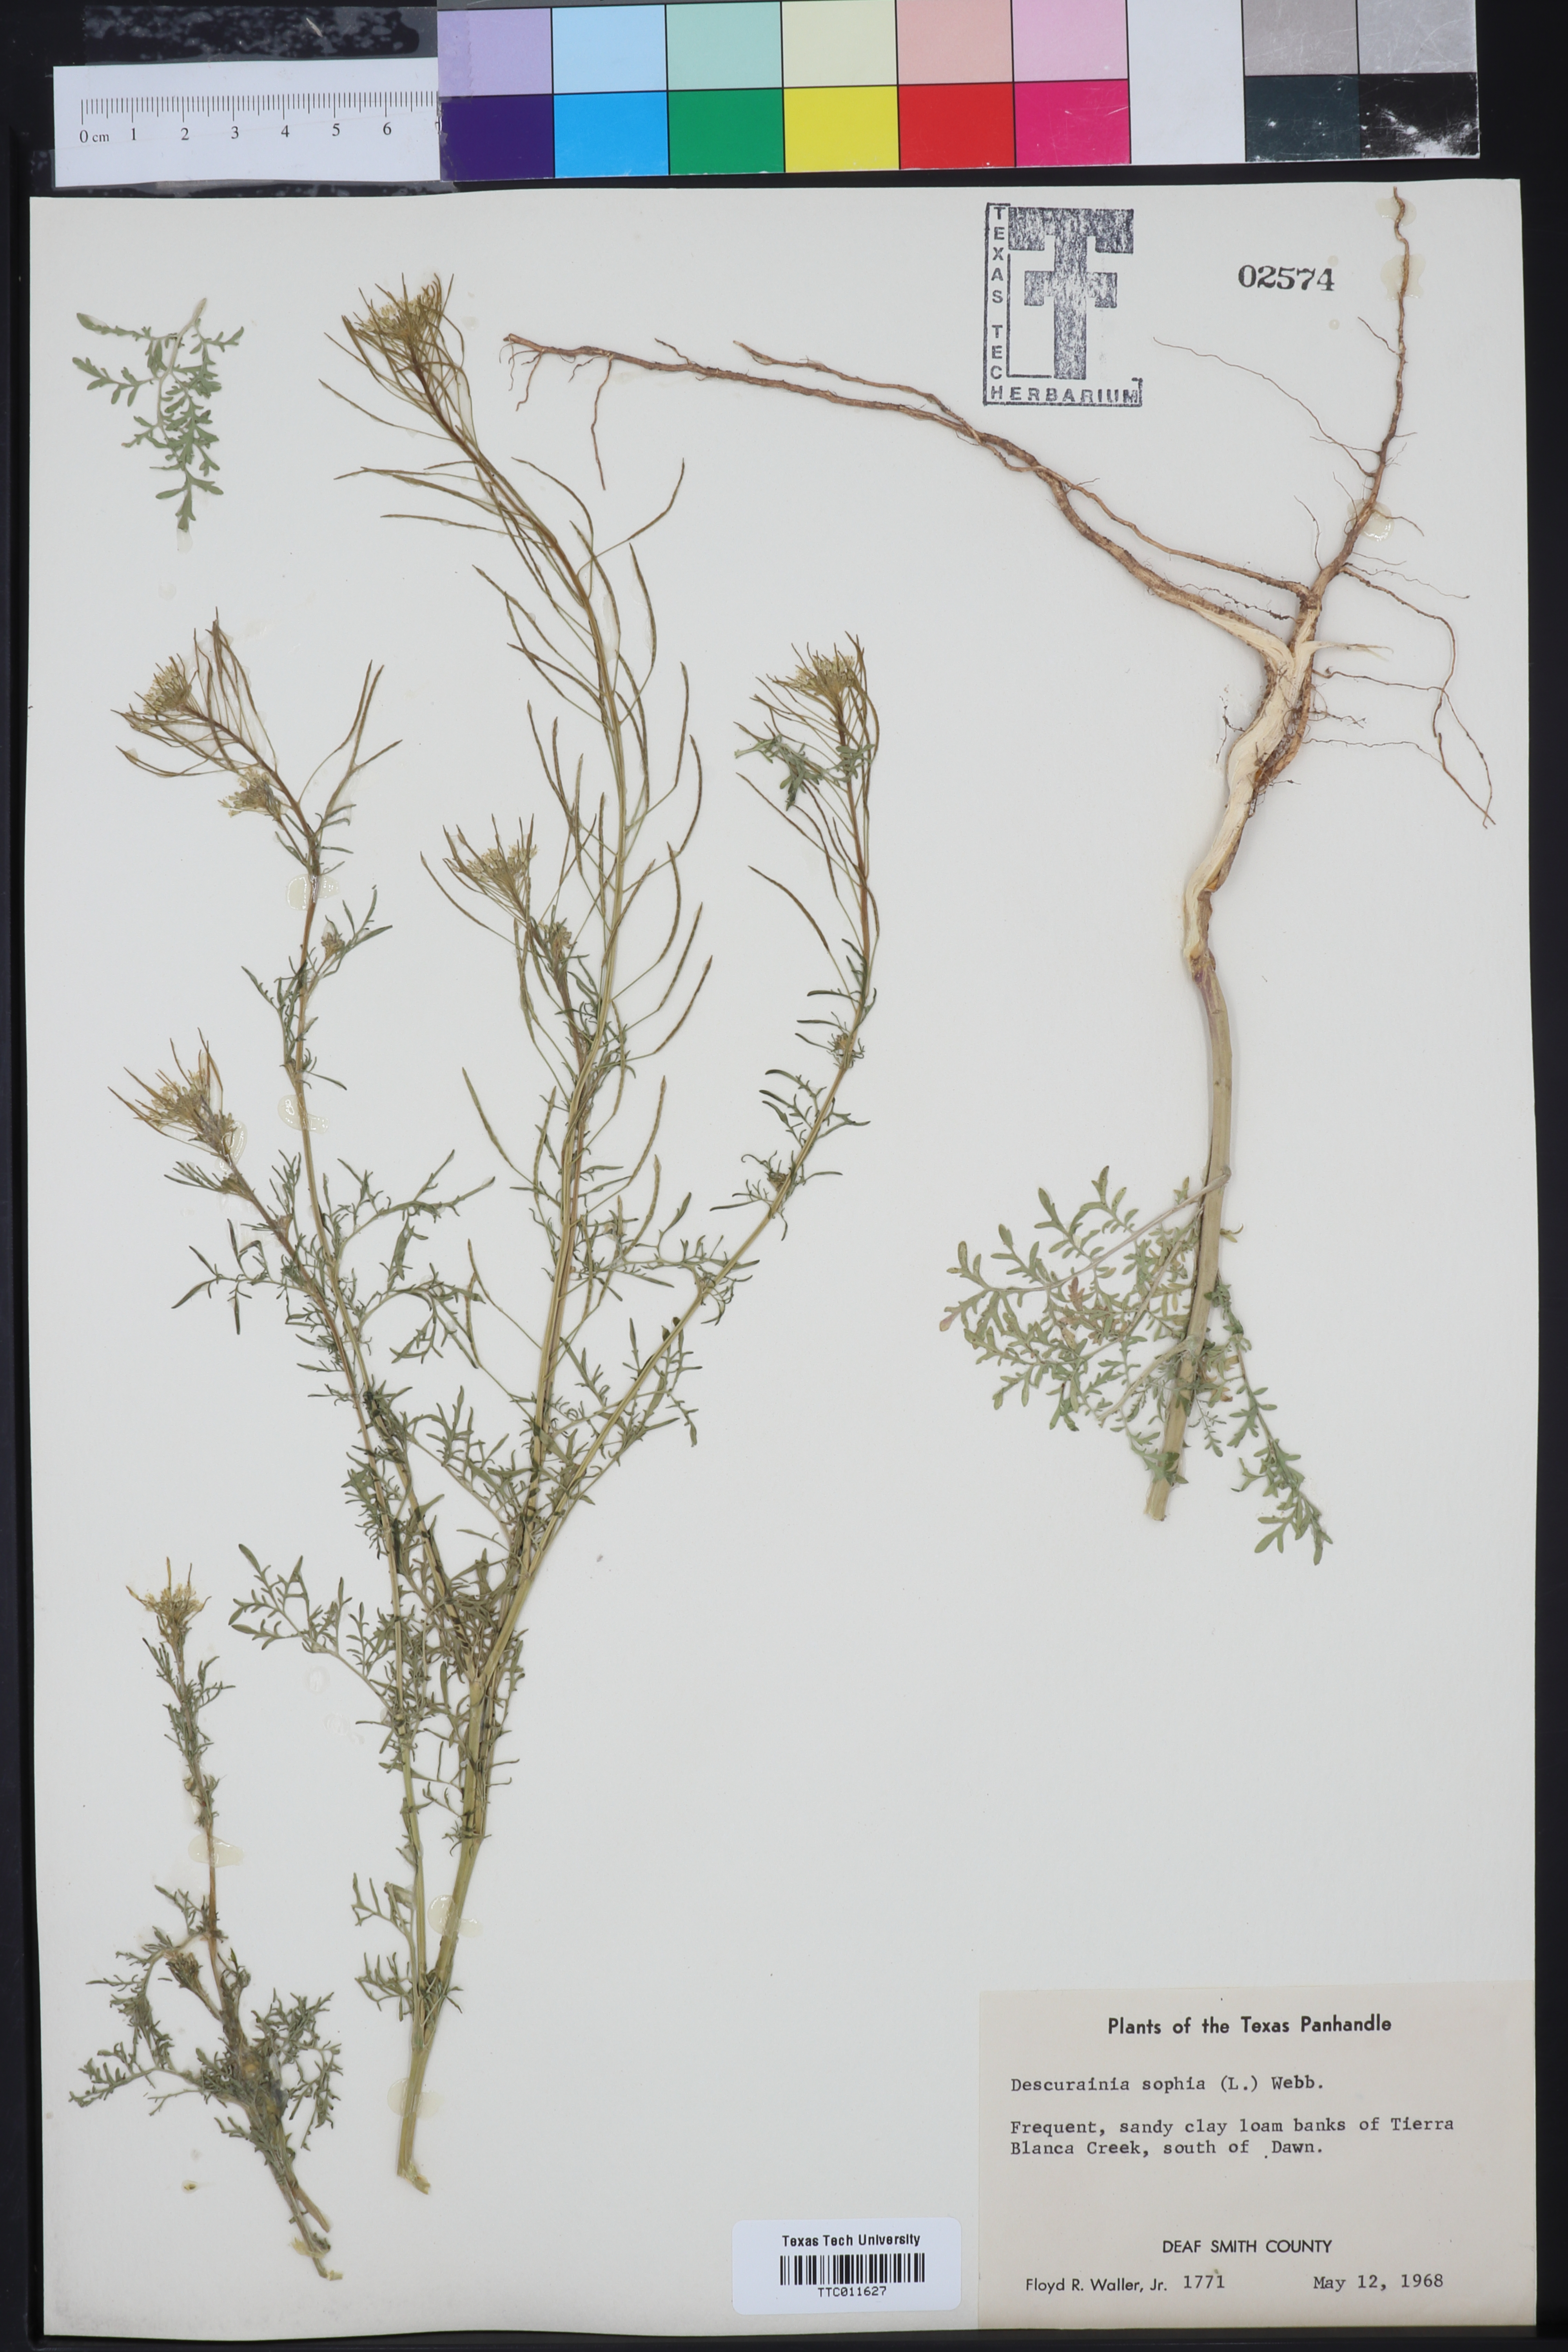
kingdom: Plantae
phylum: Tracheophyta
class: Magnoliopsida
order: Brassicales
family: Brassicaceae
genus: Descurainia
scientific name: Descurainia sophia
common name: Flixweed
